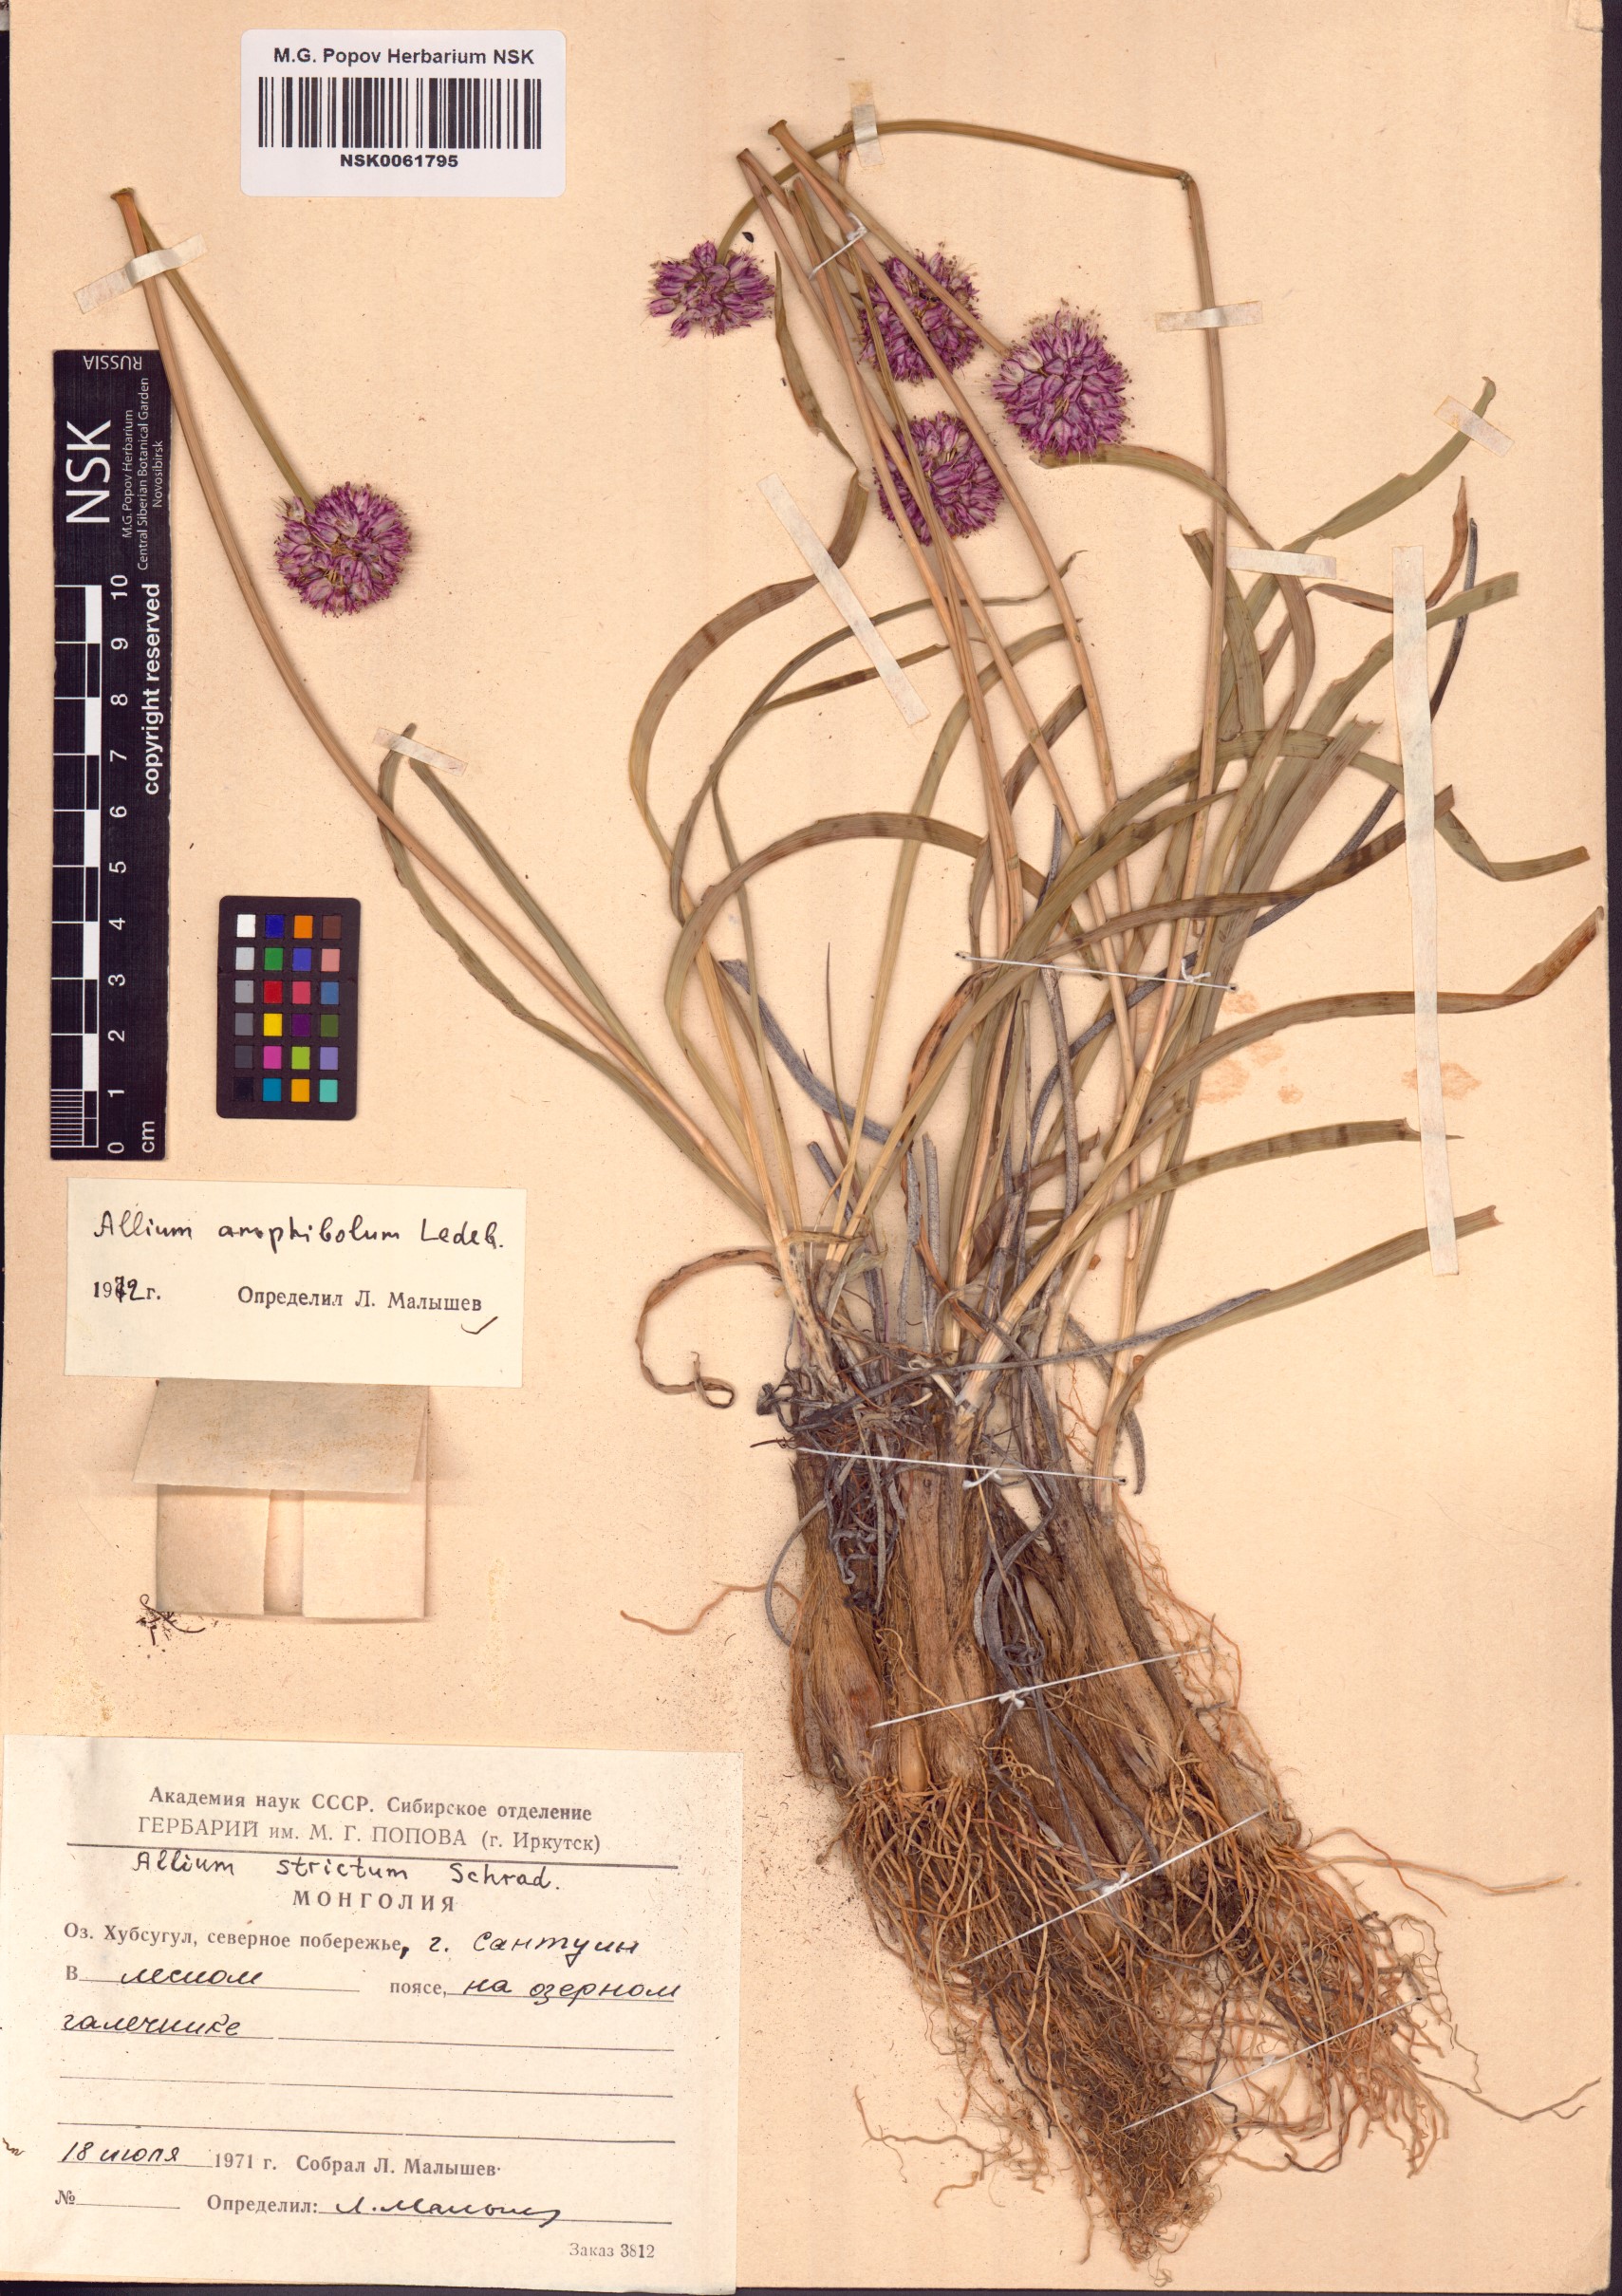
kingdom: Plantae
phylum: Tracheophyta
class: Liliopsida
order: Asparagales
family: Amaryllidaceae
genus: Allium
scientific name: Allium amphibolum
